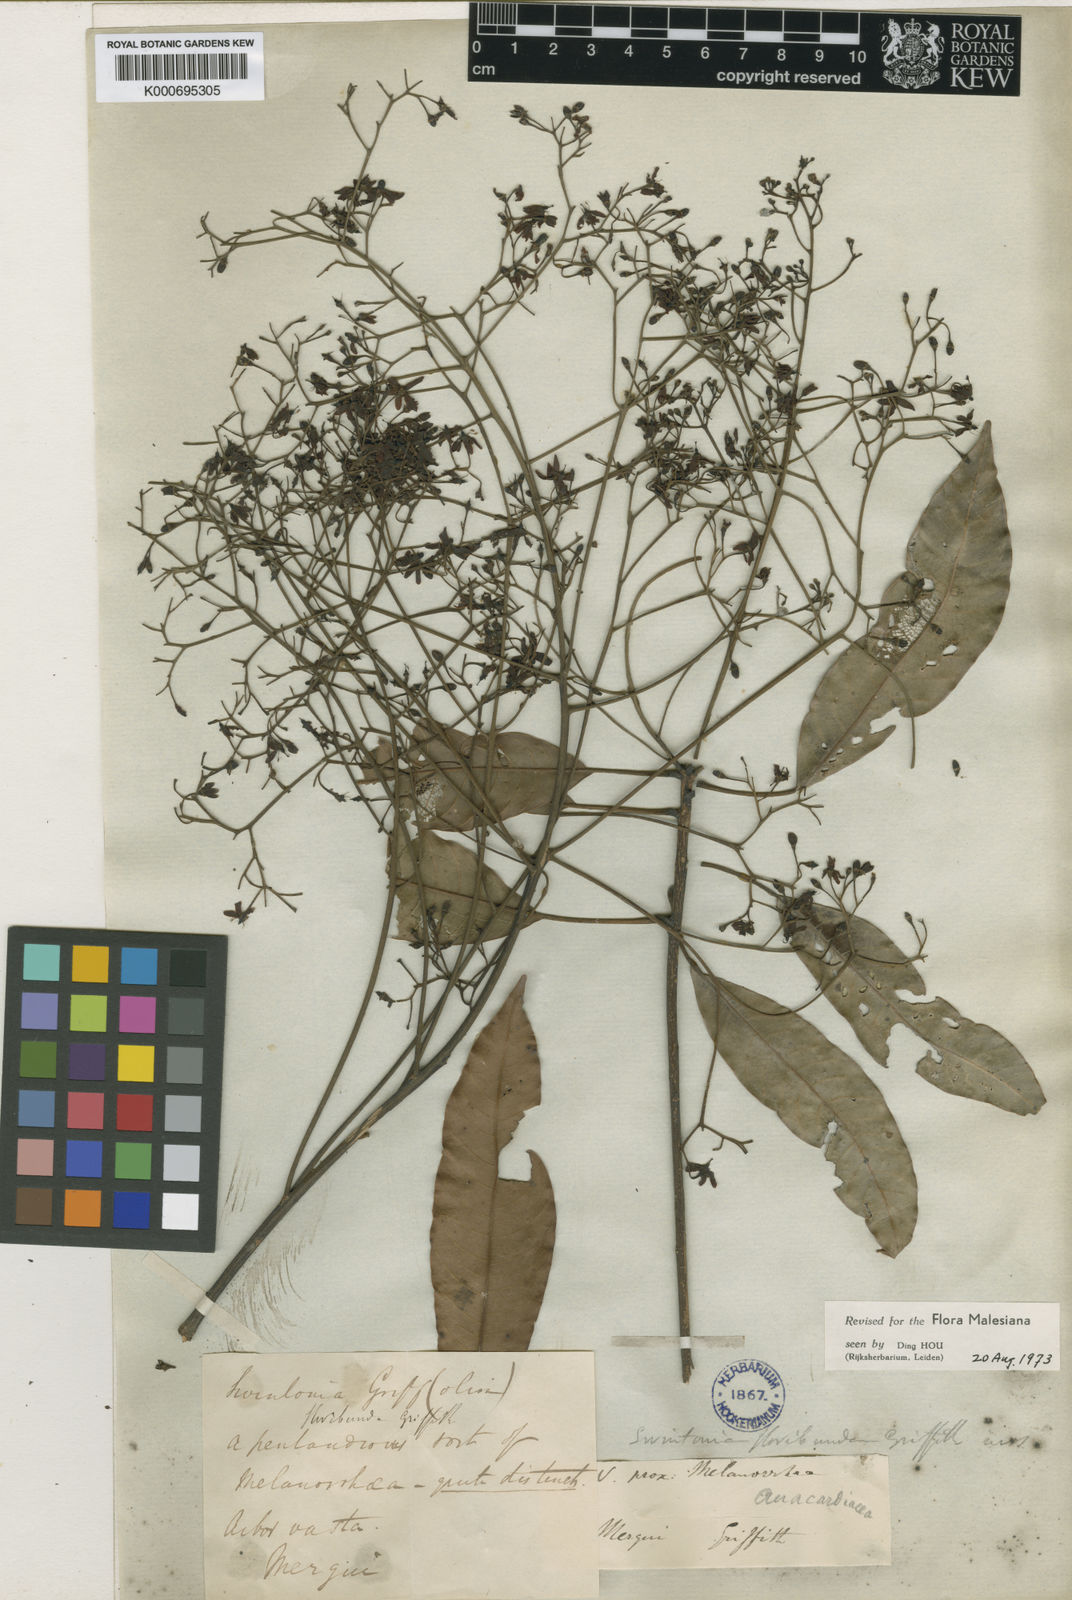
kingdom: Plantae
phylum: Tracheophyta
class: Magnoliopsida
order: Sapindales
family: Anacardiaceae
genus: Swintonia
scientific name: Swintonia floribunda
